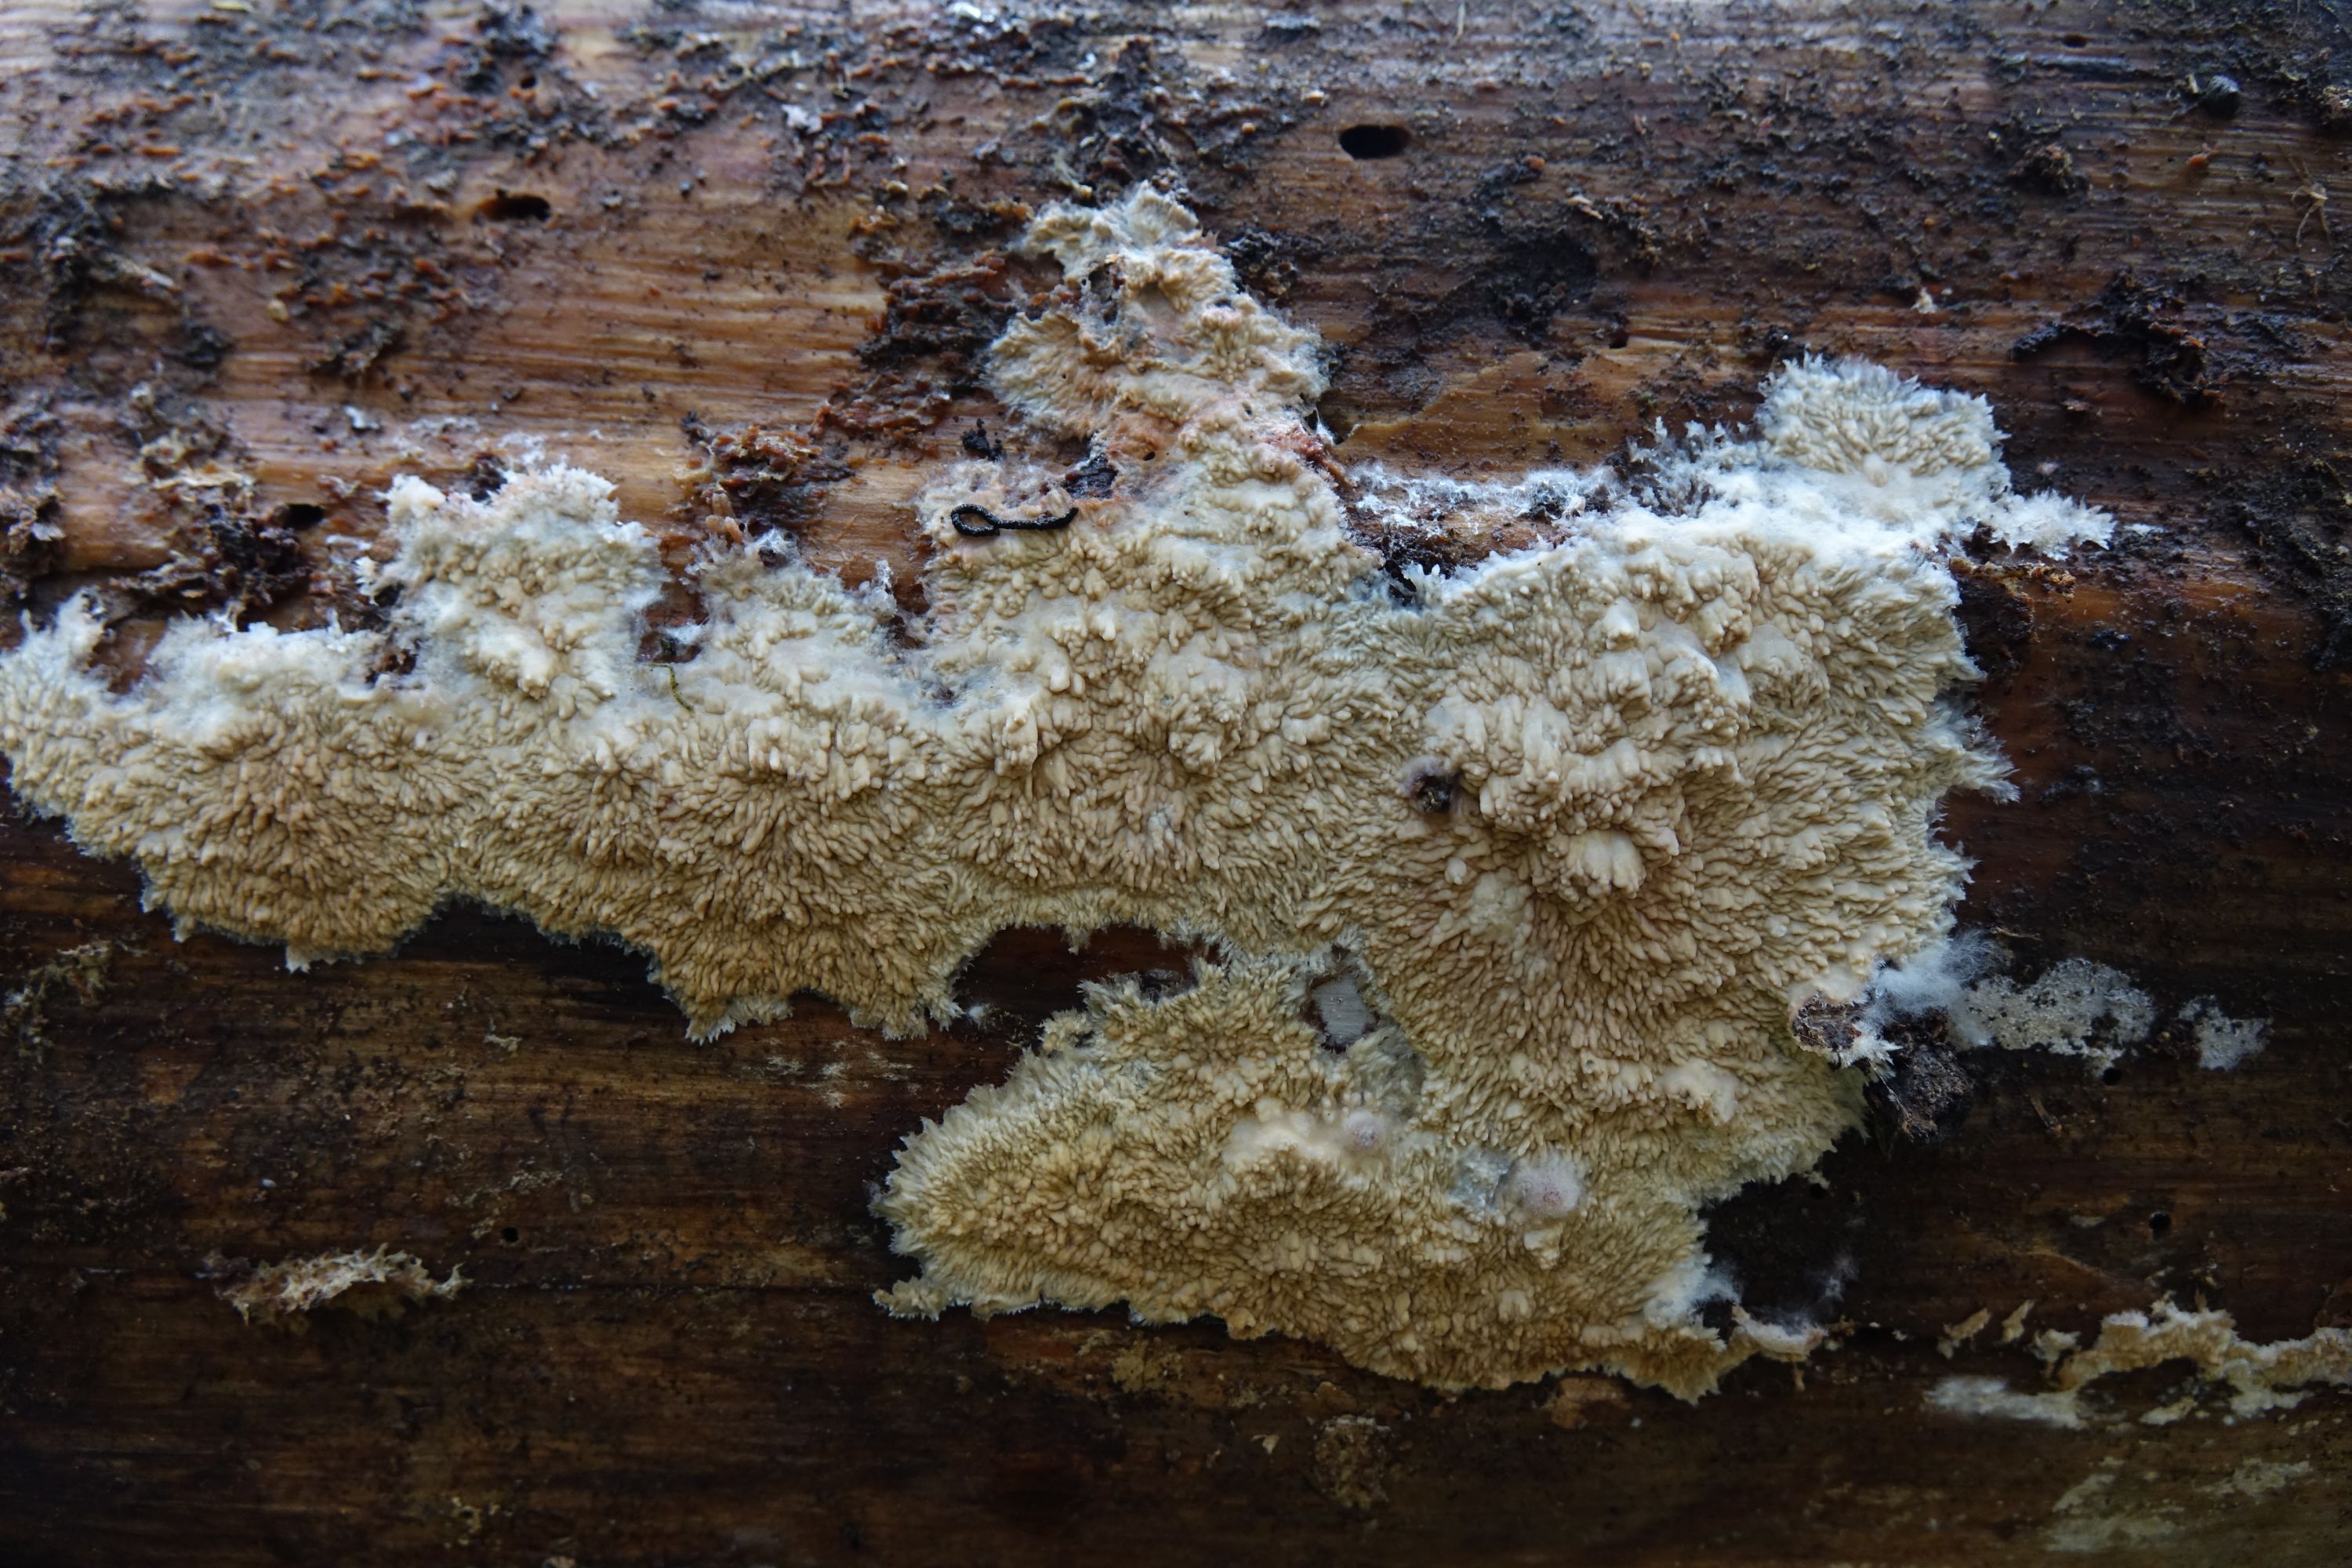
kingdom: Fungi
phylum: Basidiomycota
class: Agaricomycetes
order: Polyporales
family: Meruliaceae
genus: Hermanssonia
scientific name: Hermanssonia centrifuga
